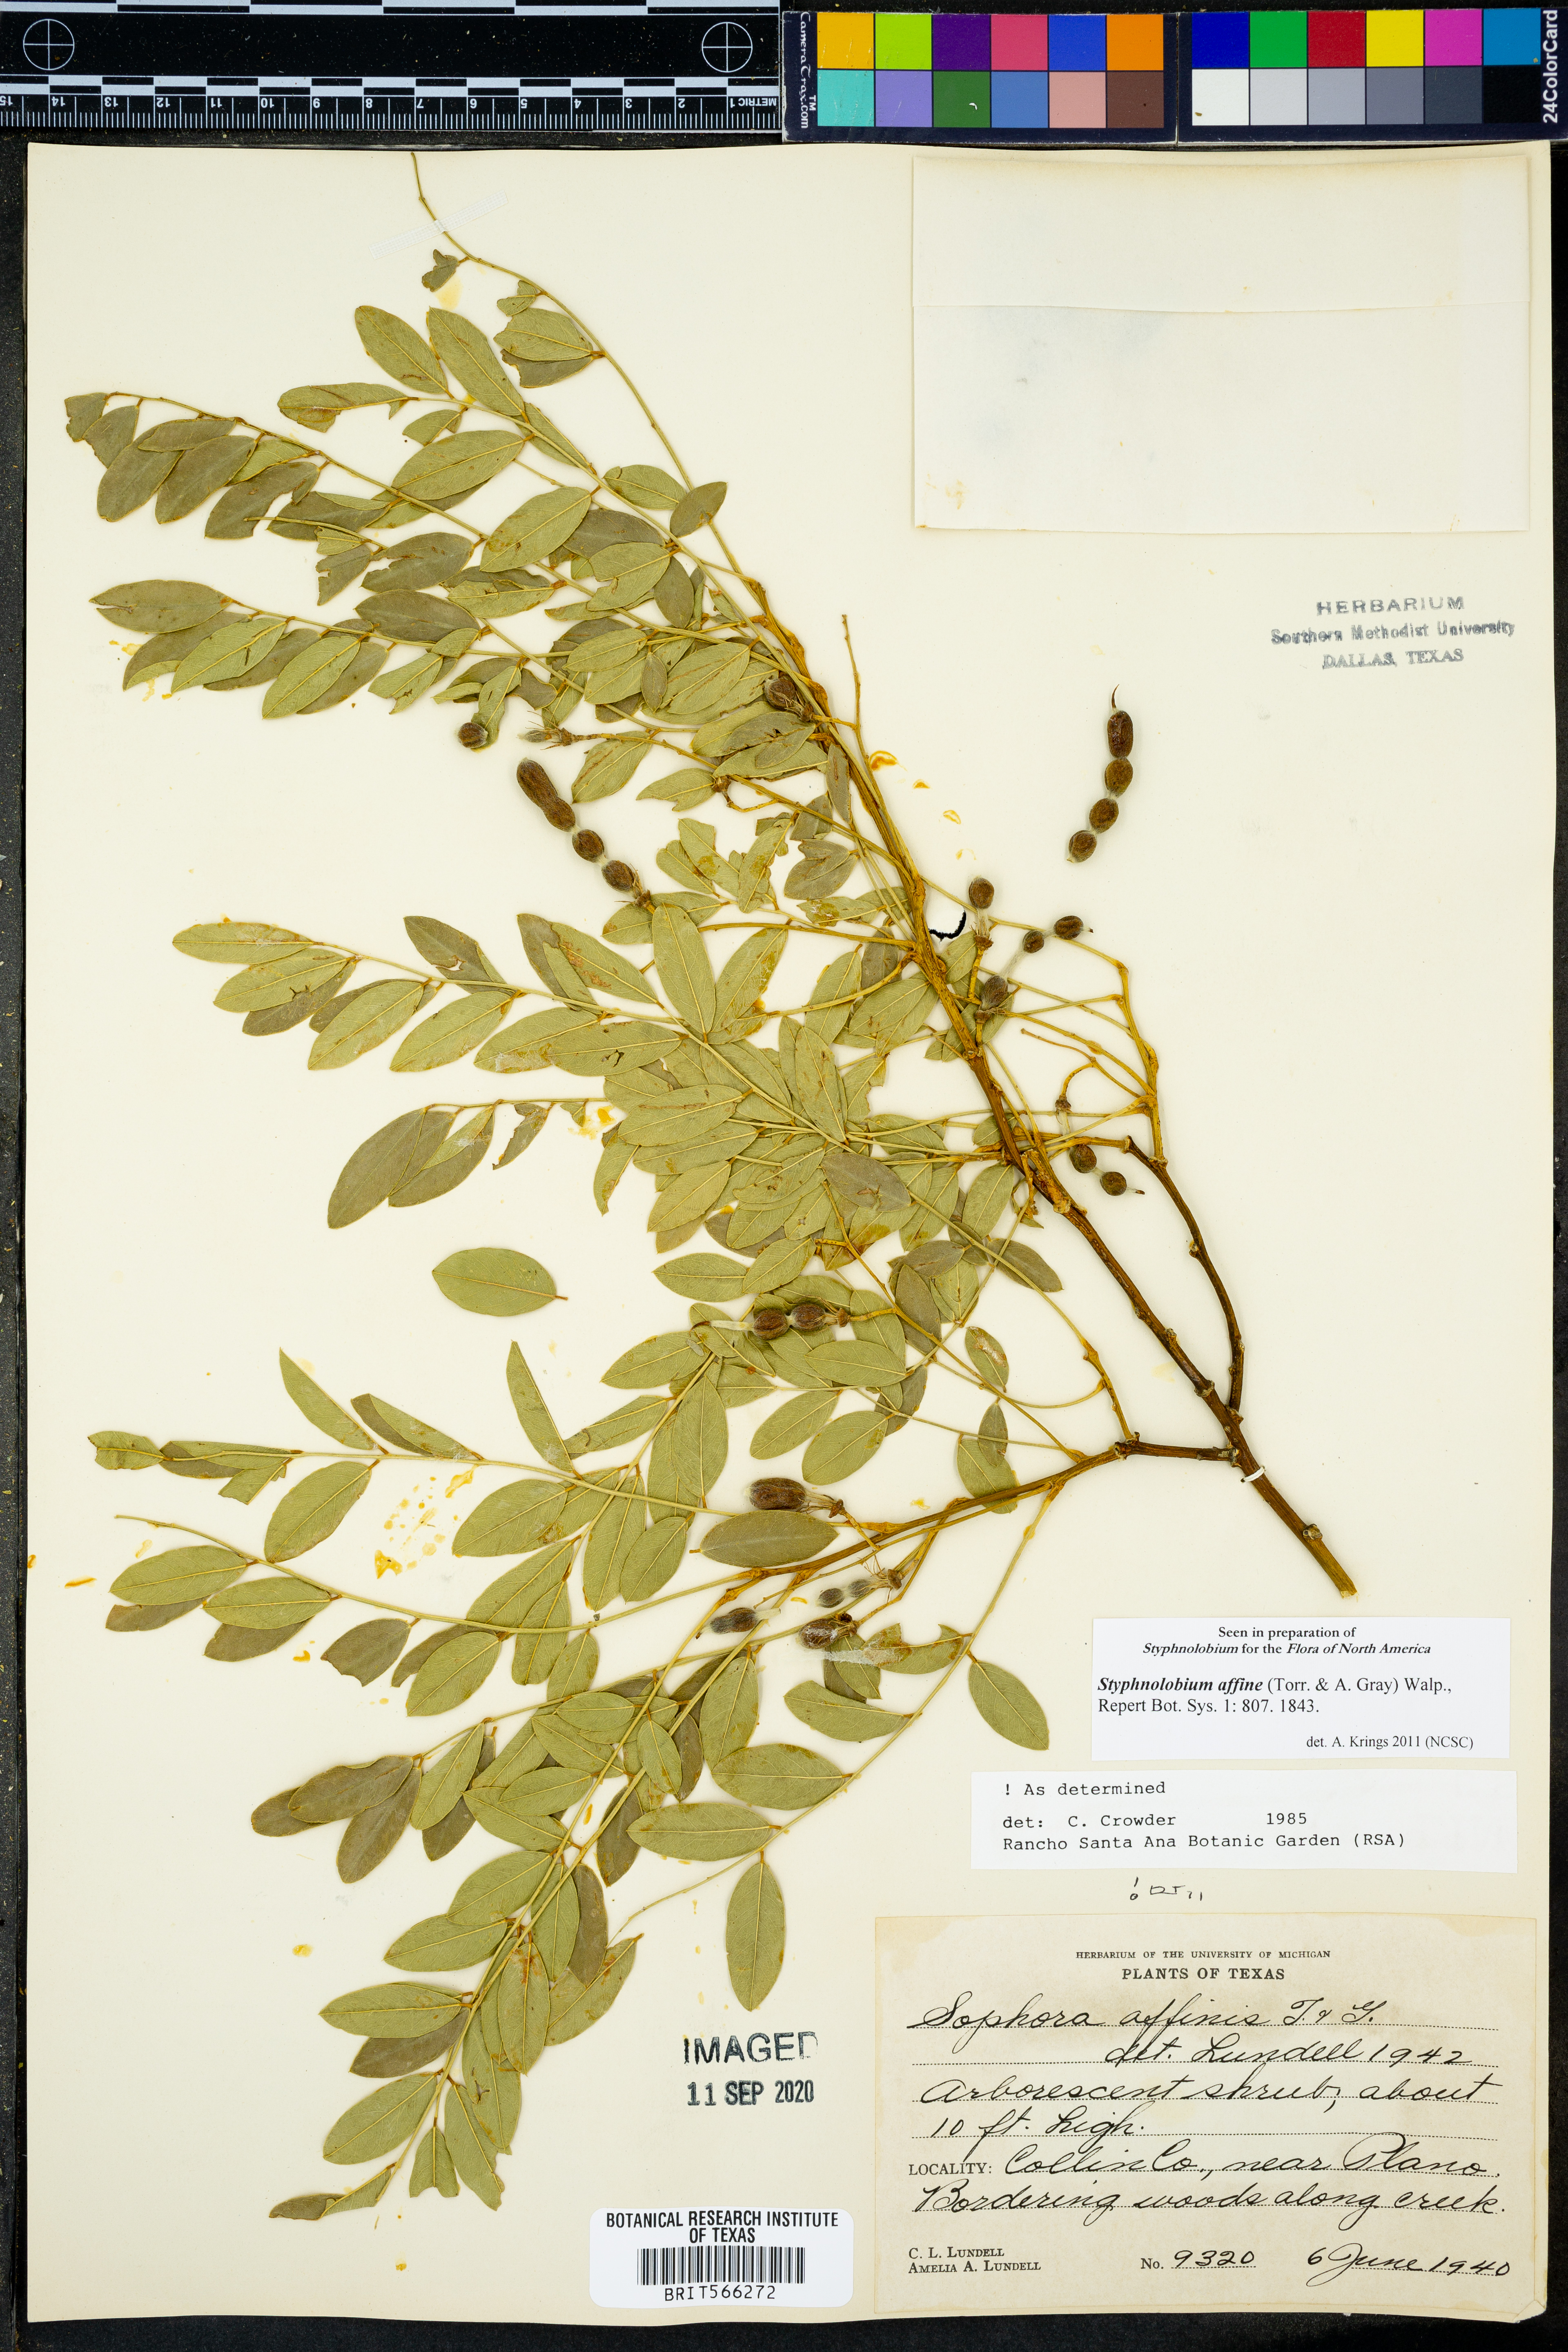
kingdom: Plantae
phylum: Tracheophyta
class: Magnoliopsida
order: Fabales
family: Fabaceae
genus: Styphnolobium
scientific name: Styphnolobium affine
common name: Texas sophora
